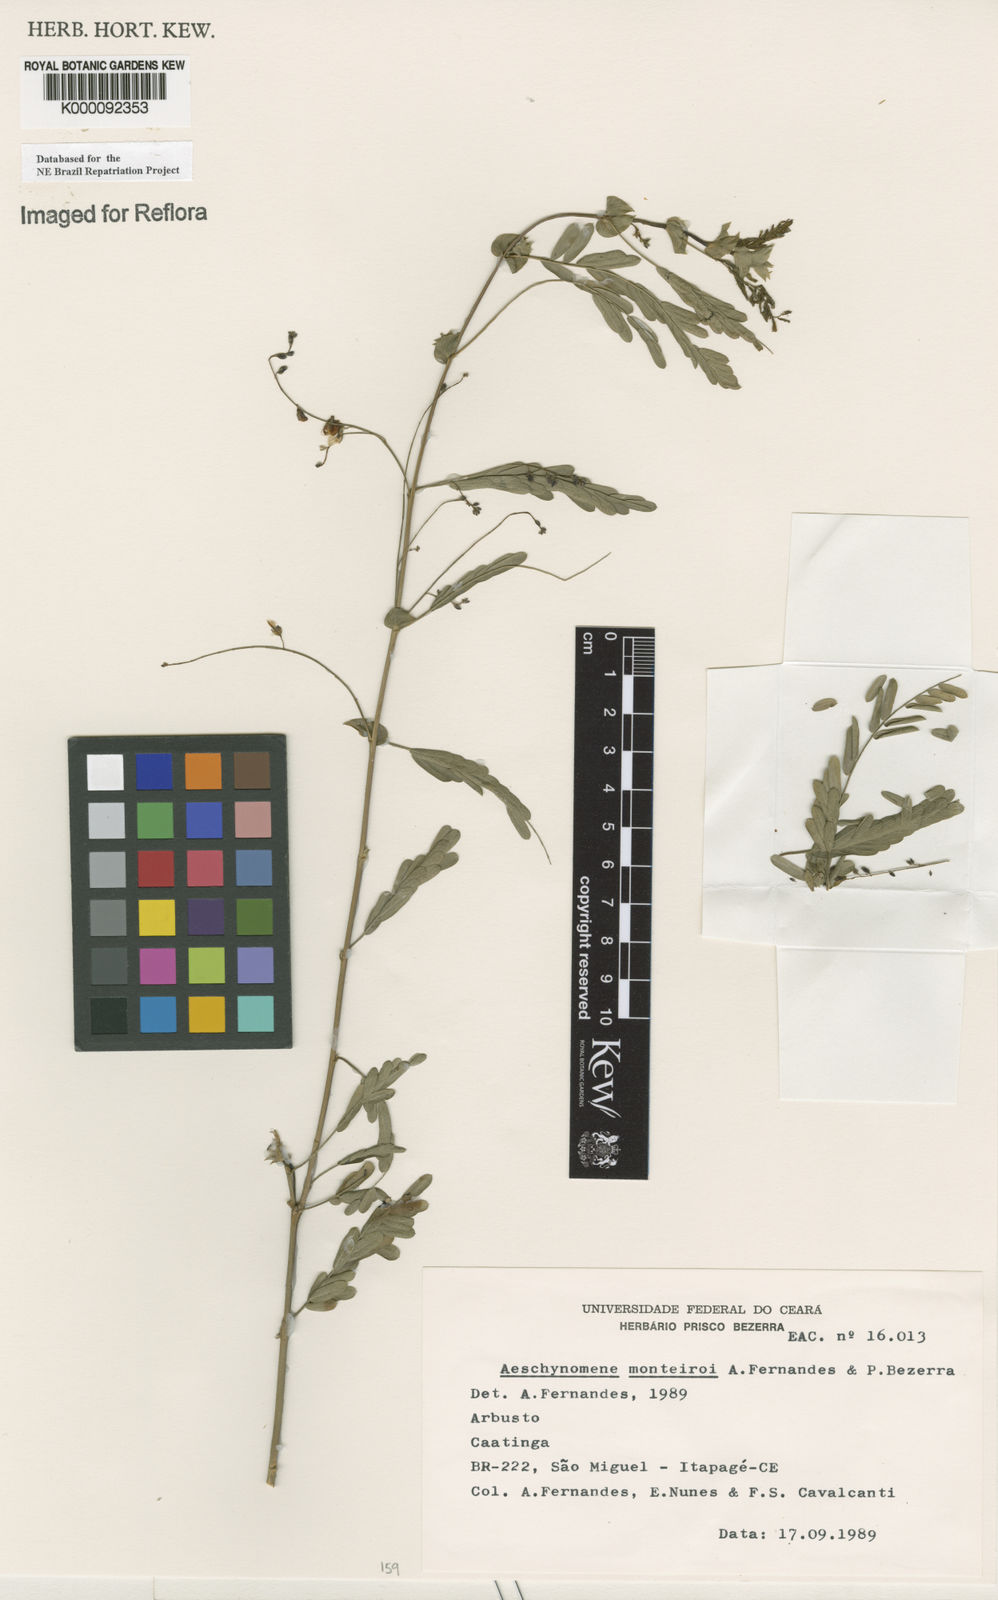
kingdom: Plantae
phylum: Tracheophyta
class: Magnoliopsida
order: Fabales
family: Fabaceae
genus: Ctenodon
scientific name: Ctenodon monteiroi
